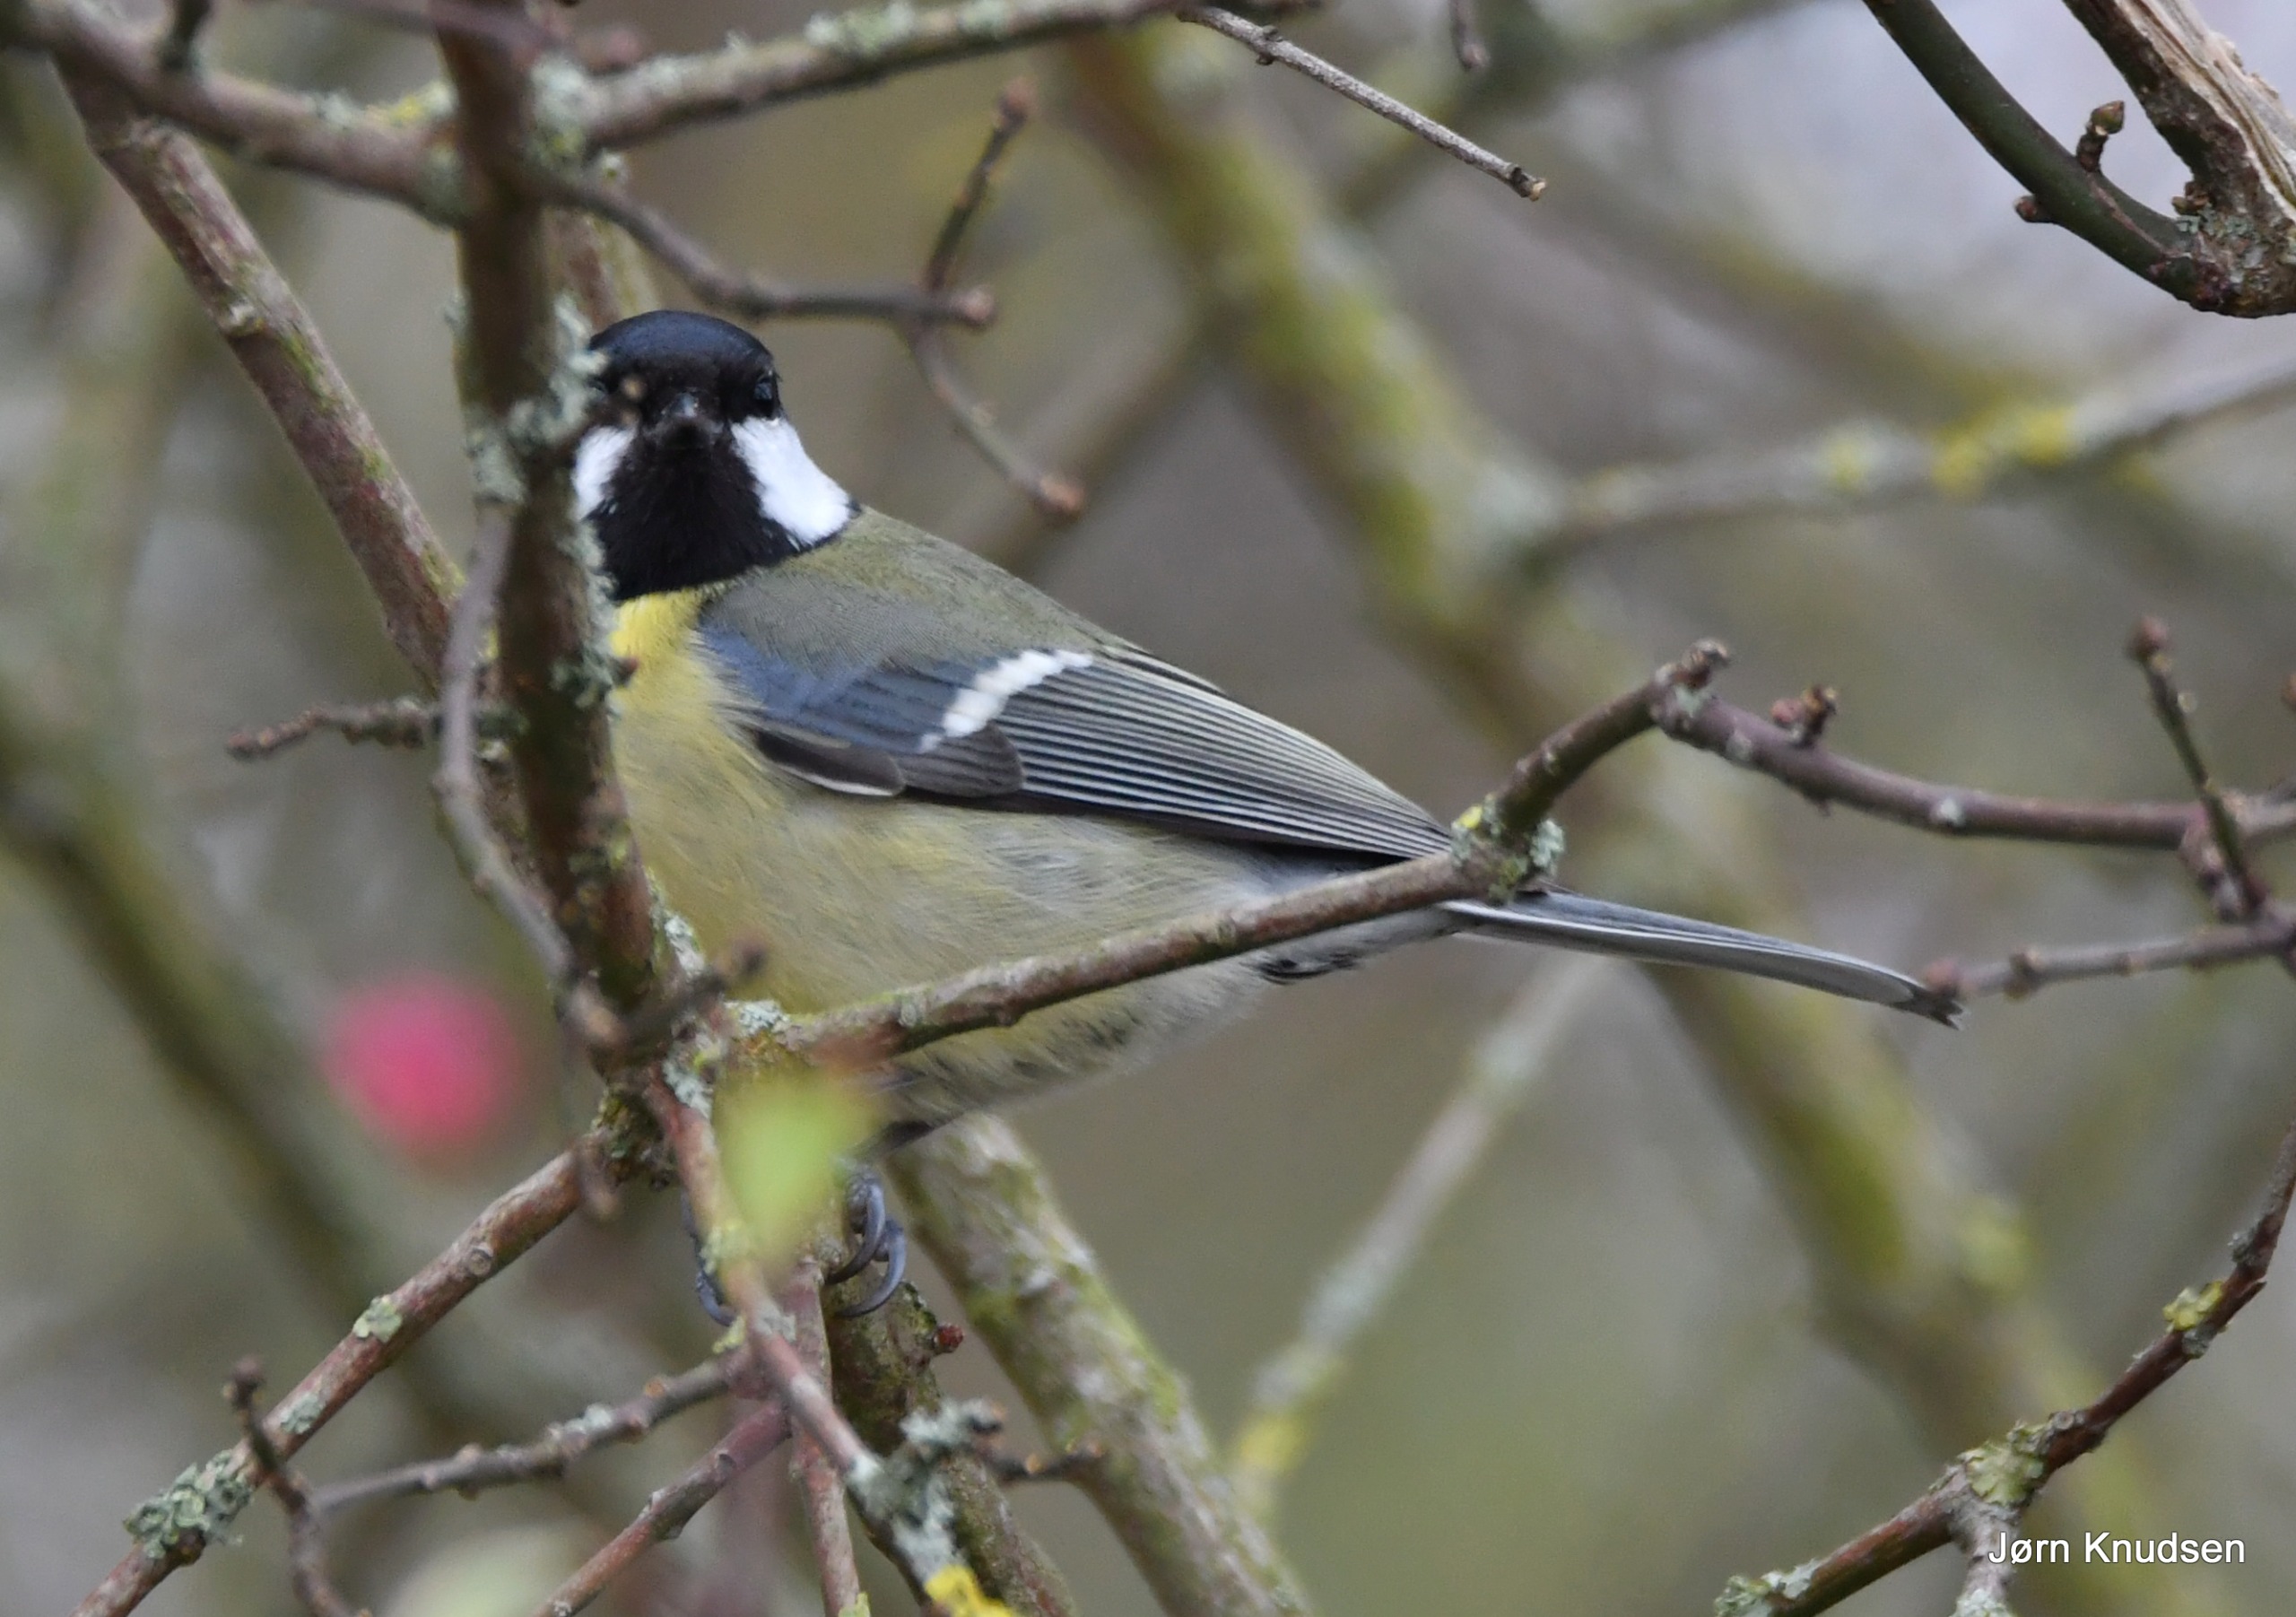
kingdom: Animalia
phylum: Chordata
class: Aves
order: Passeriformes
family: Paridae
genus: Parus
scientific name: Parus major
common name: Musvit
